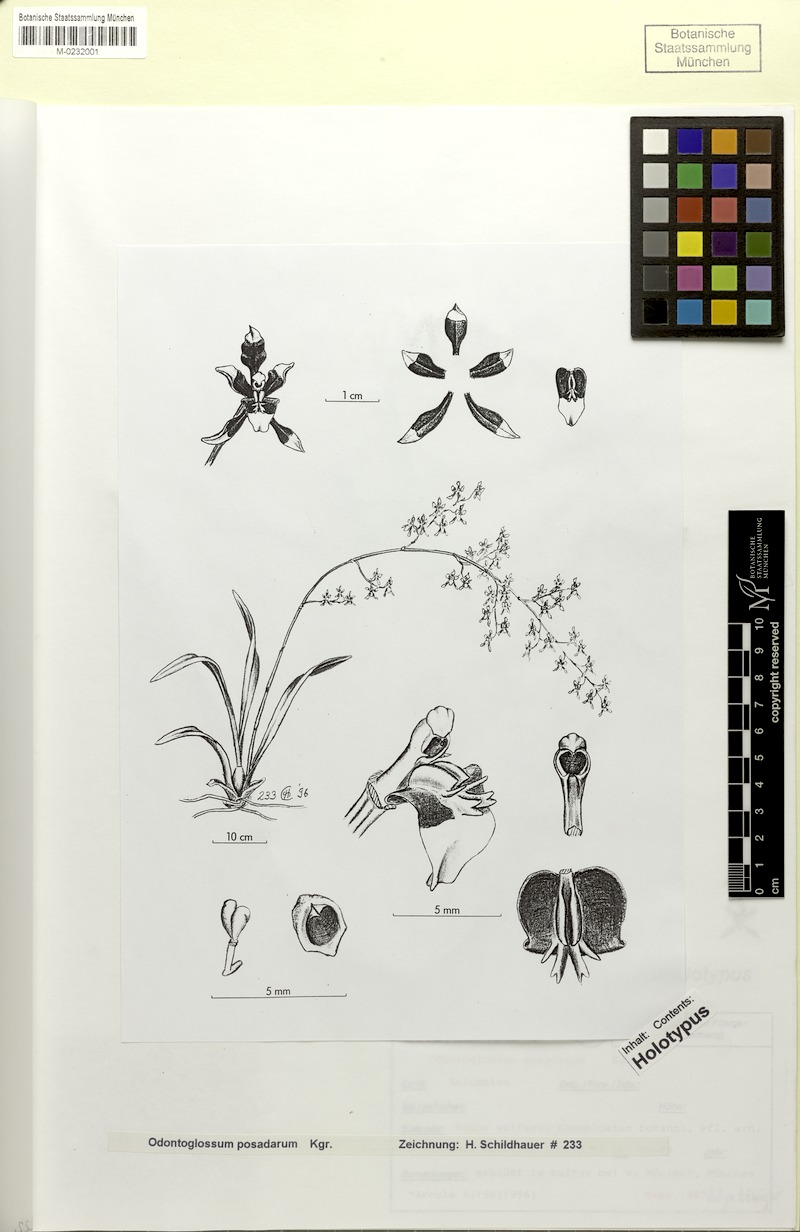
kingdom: Plantae
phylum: Tracheophyta
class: Liliopsida
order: Asparagales
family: Orchidaceae
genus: Cyrtochilum
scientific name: Cyrtochilum densiflorum
